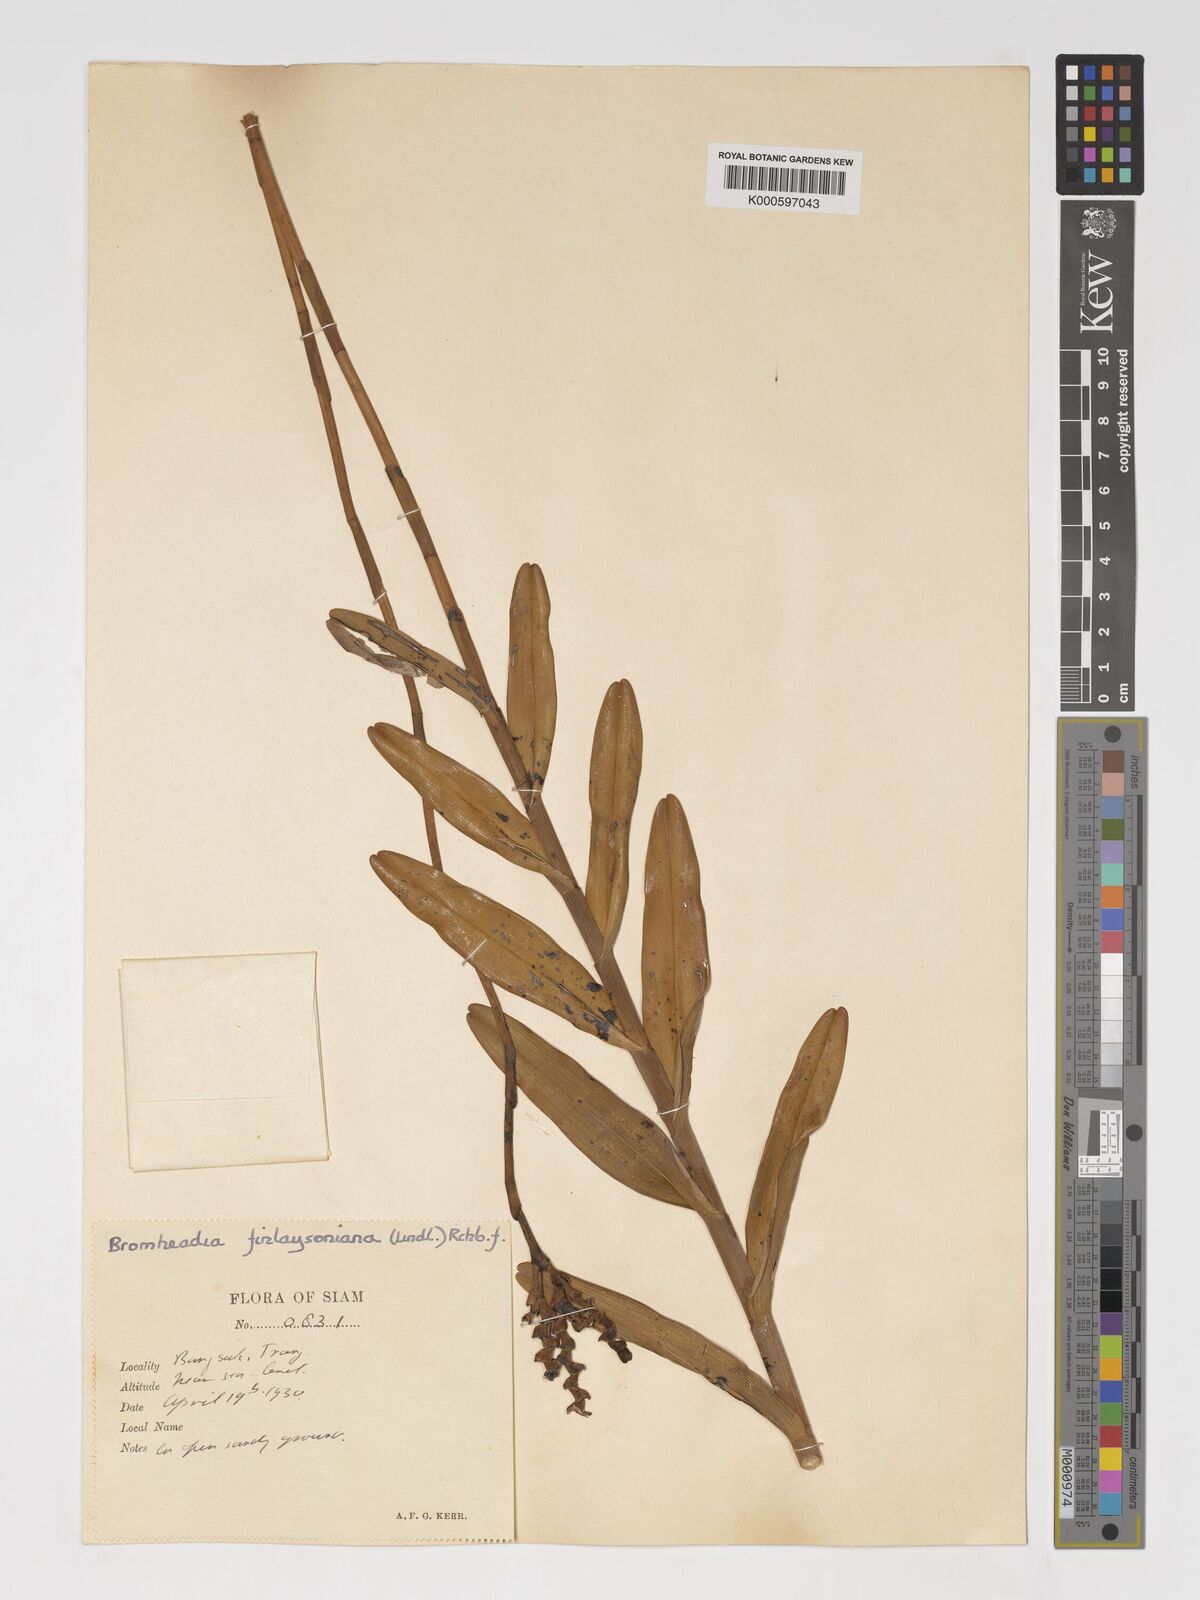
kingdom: Plantae
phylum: Tracheophyta
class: Liliopsida
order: Asparagales
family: Orchidaceae
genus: Bromheadia
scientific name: Bromheadia
